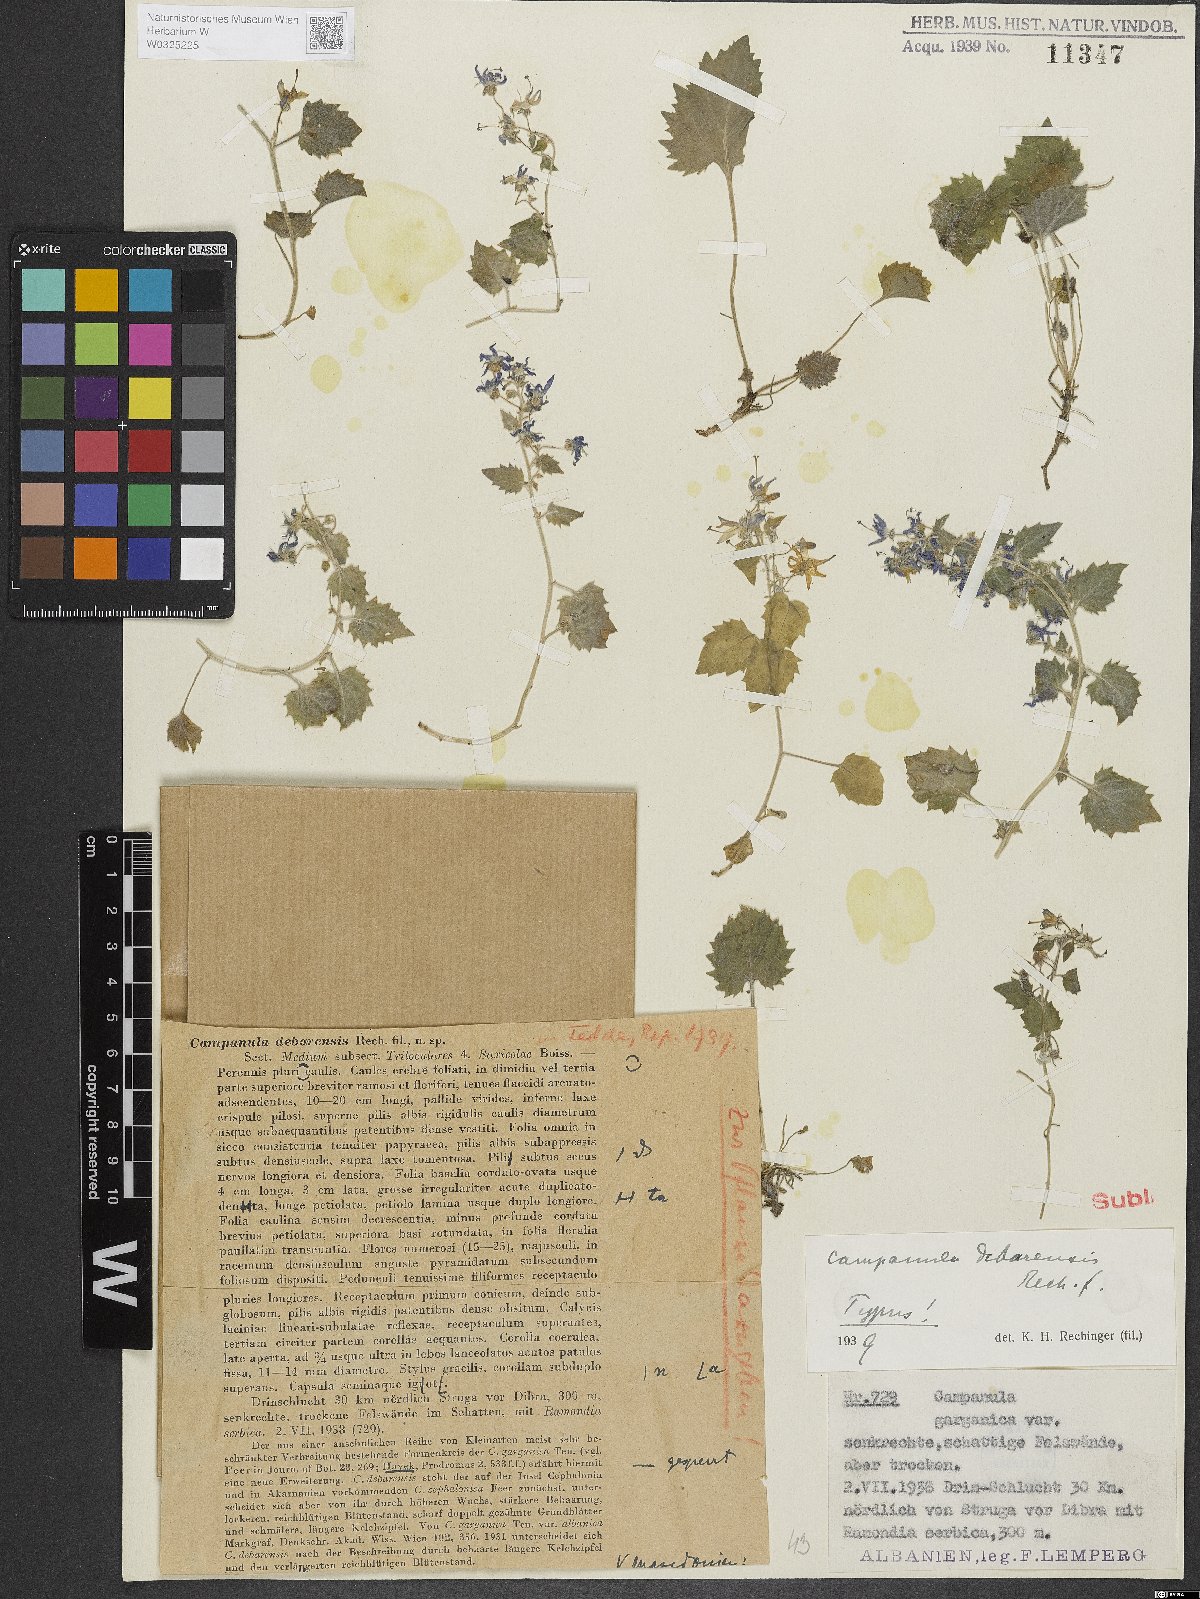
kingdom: Plantae
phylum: Tracheophyta
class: Magnoliopsida
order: Asterales
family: Campanulaceae
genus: Campanula
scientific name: Campanula fenestrellata
